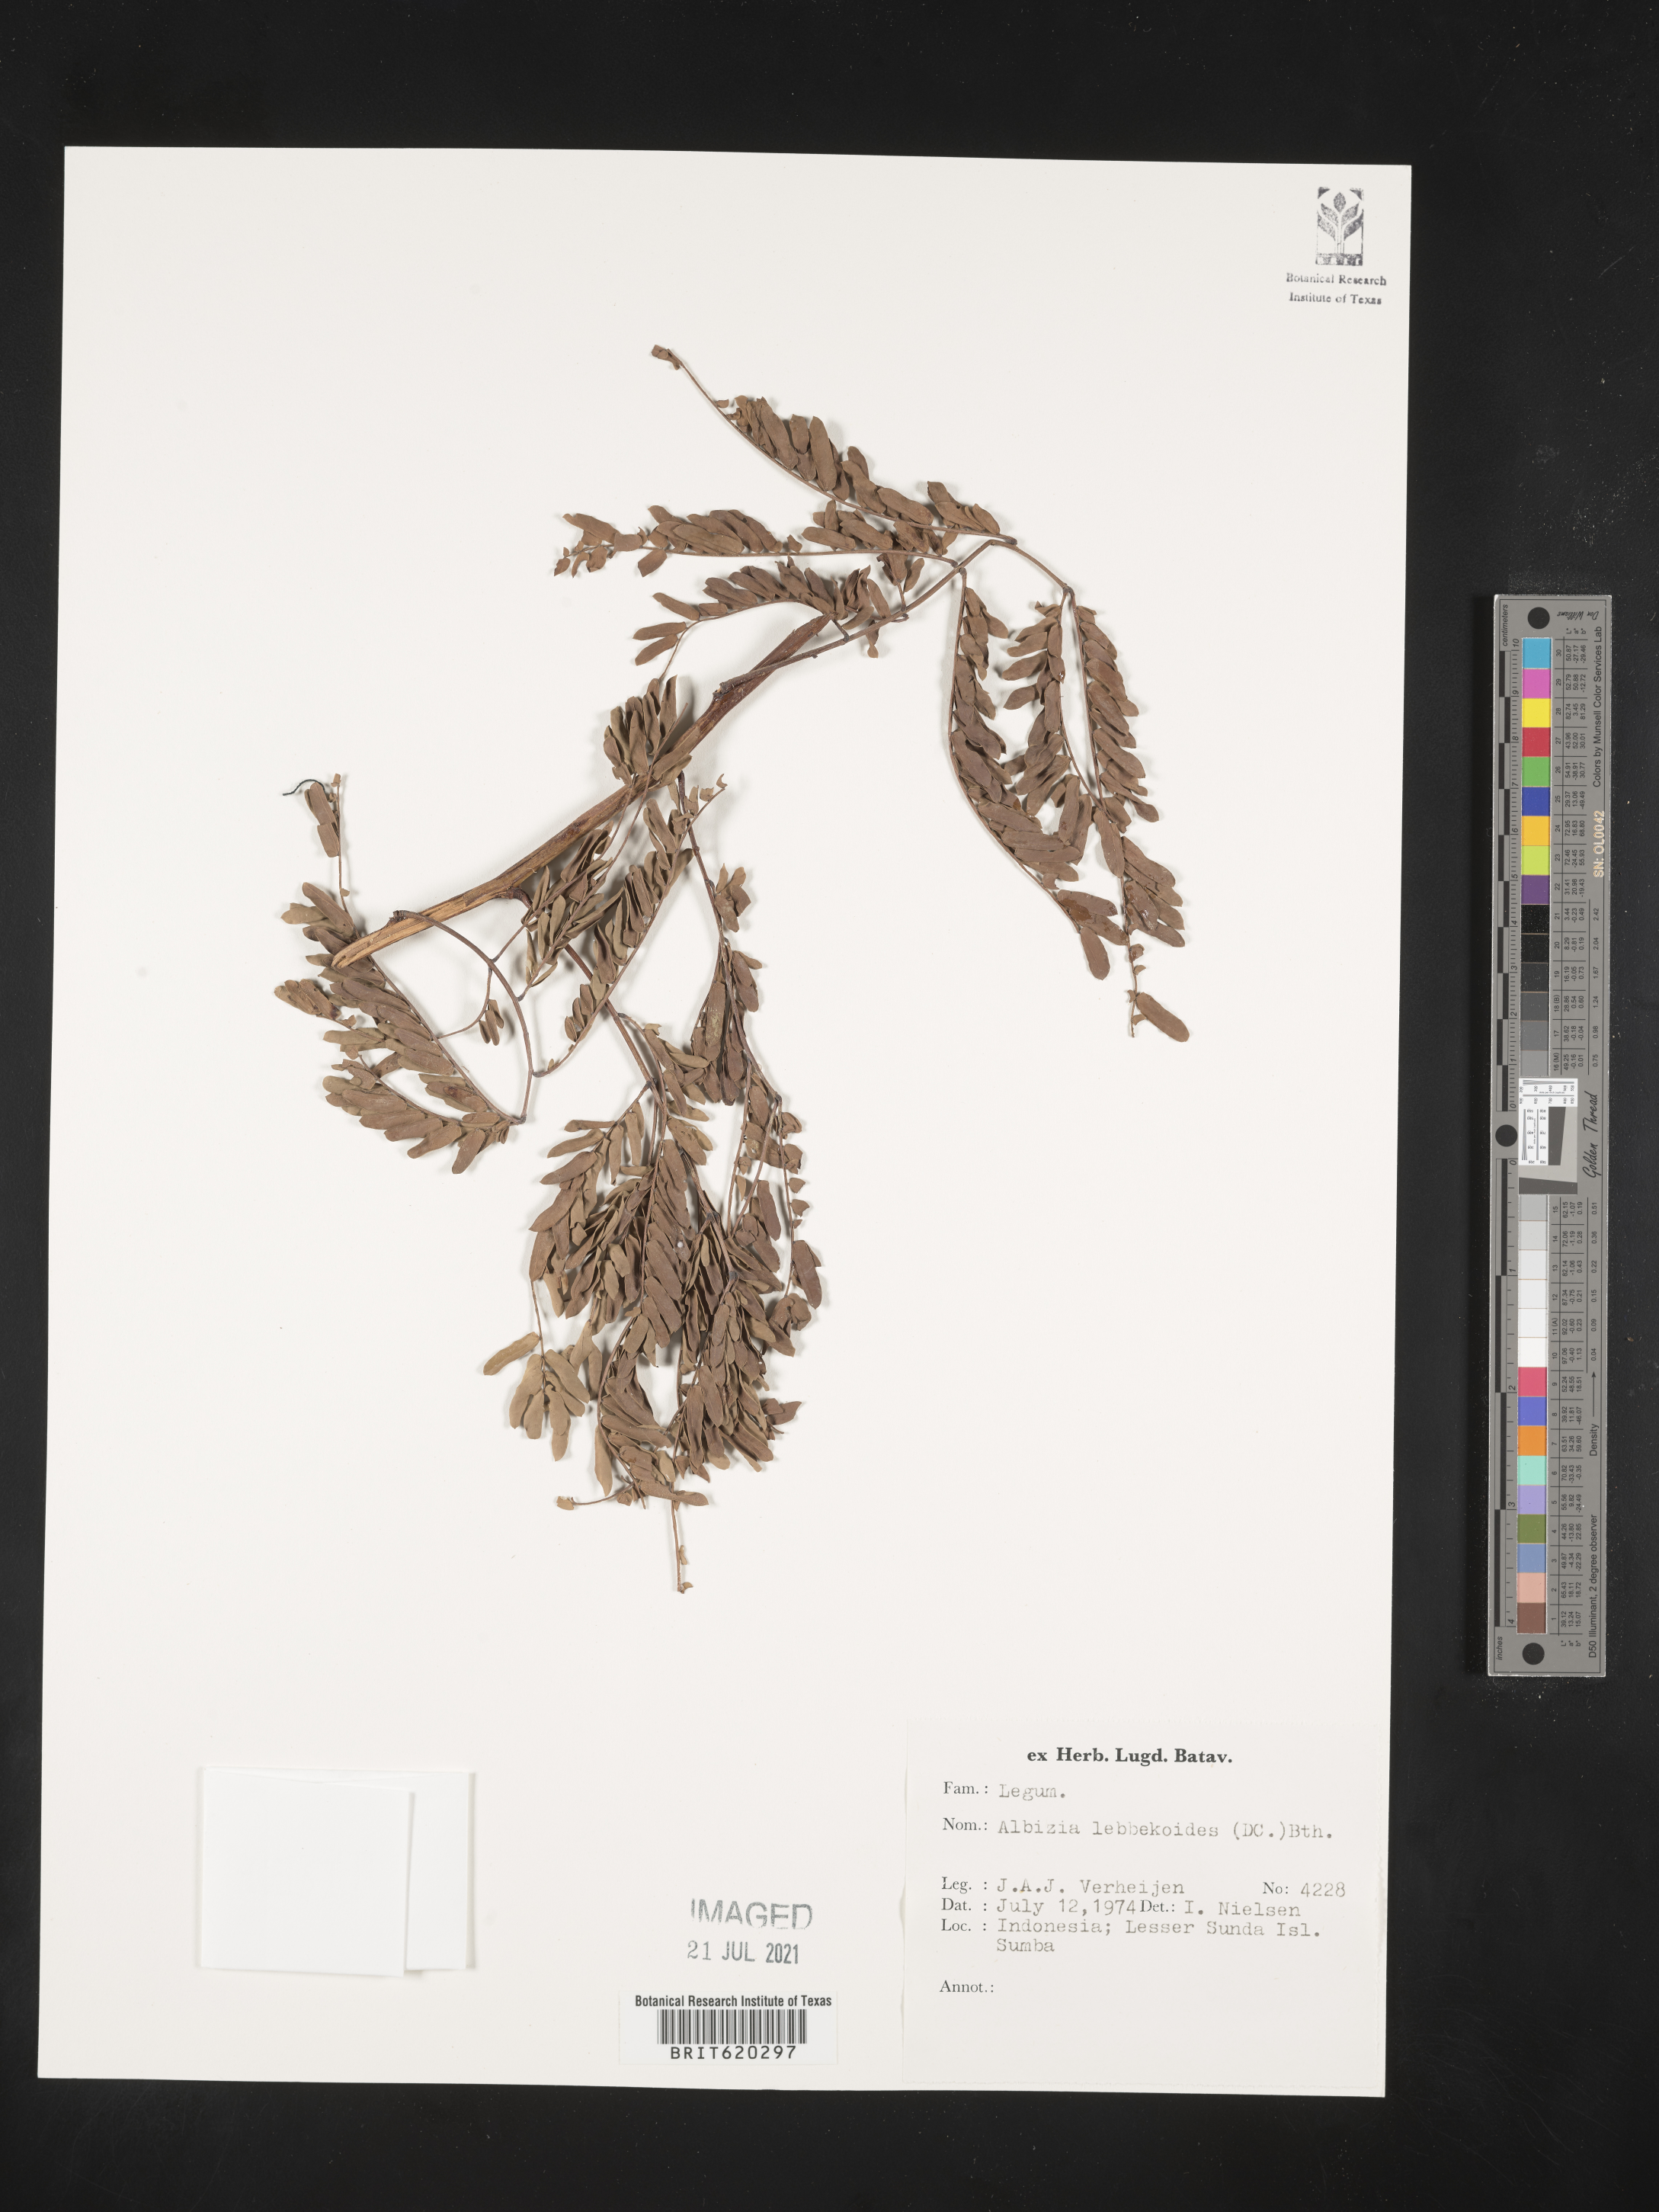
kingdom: Plantae
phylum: Tracheophyta
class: Magnoliopsida
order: Fabales
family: Fabaceae
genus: Albizia
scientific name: Albizia lebbekoides
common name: Indian albizia
